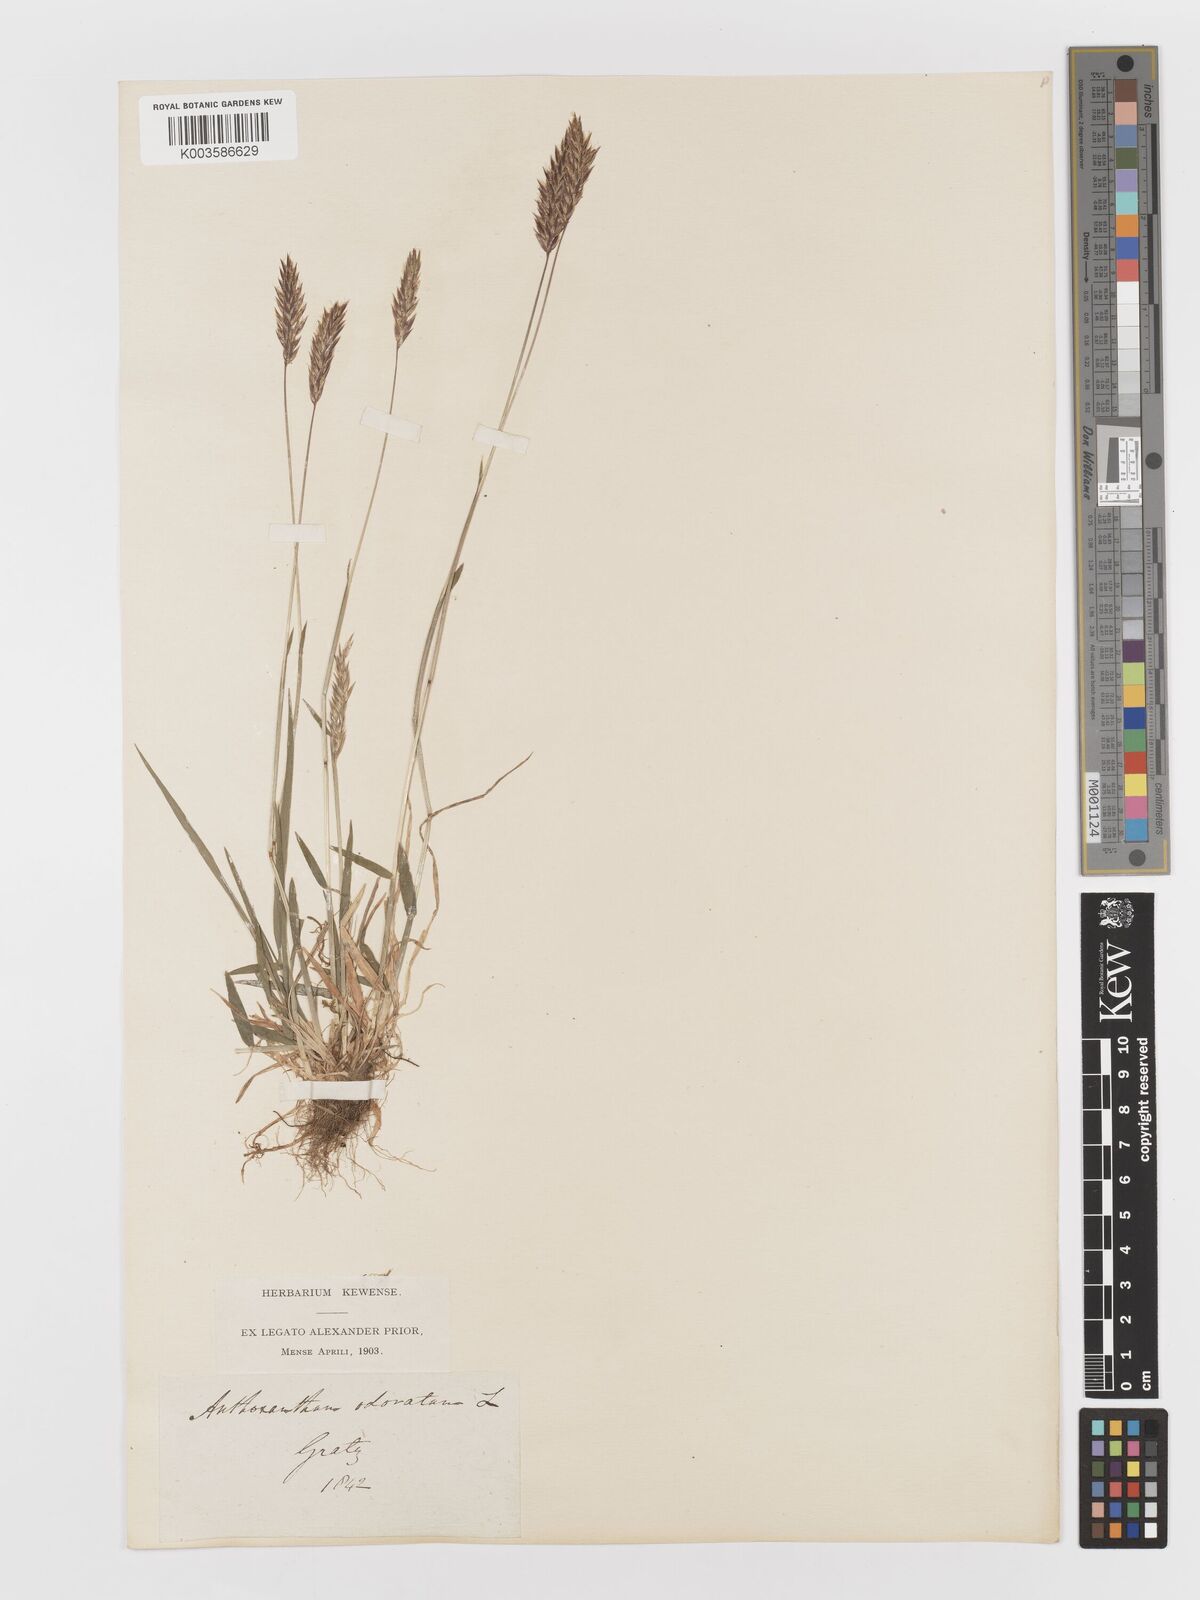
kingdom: Plantae
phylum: Tracheophyta
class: Liliopsida
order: Poales
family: Poaceae
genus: Anthoxanthum
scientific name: Anthoxanthum odoratum
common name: Sweet vernalgrass
